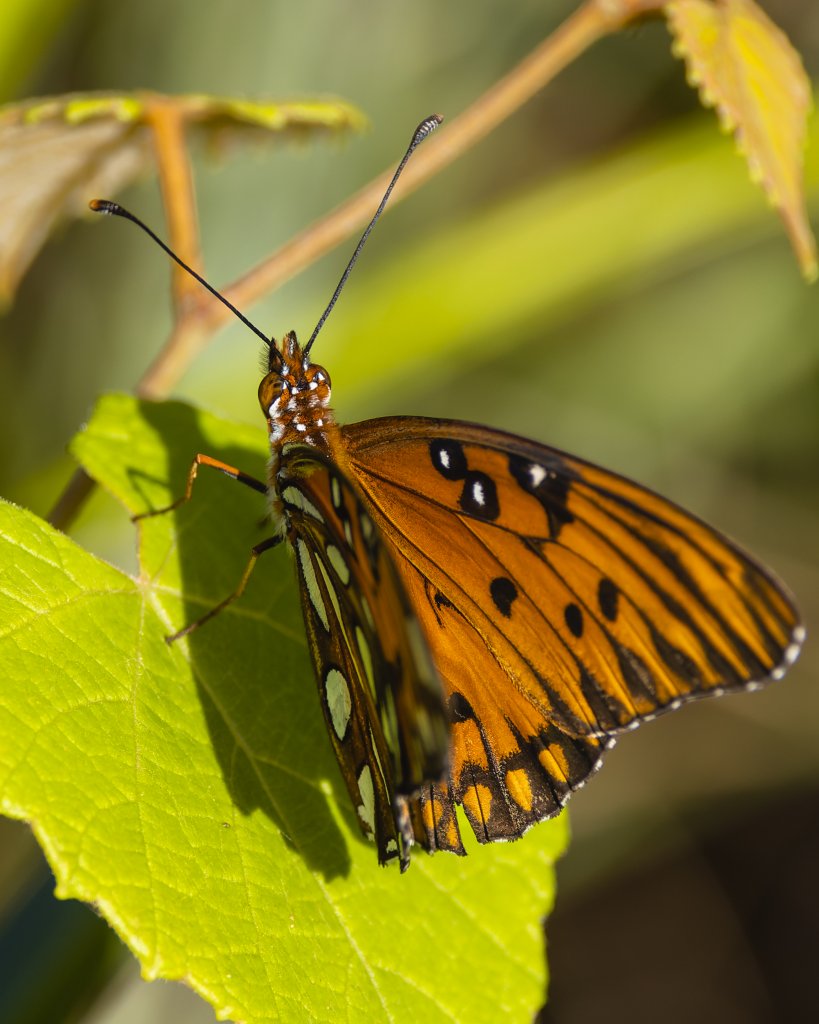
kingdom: Animalia
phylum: Arthropoda
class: Insecta
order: Lepidoptera
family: Nymphalidae
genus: Dione
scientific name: Dione vanillae
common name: Gulf Fritillary
